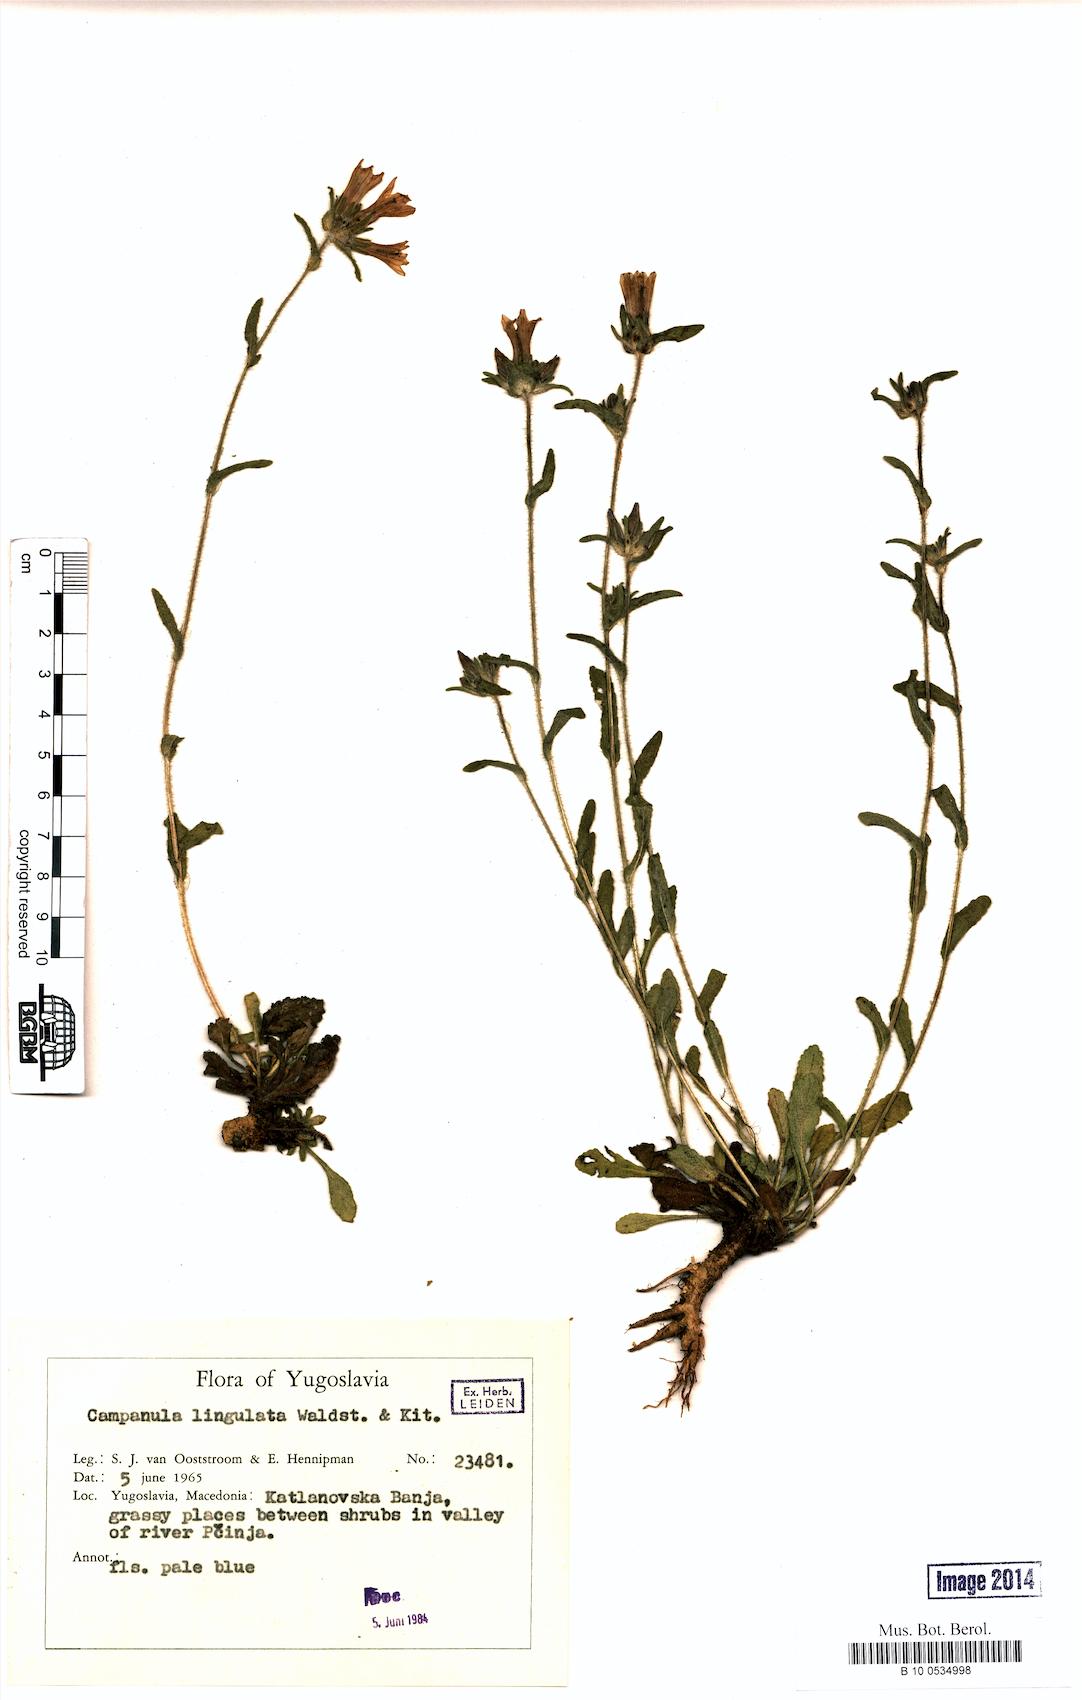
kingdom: Plantae
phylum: Tracheophyta
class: Magnoliopsida
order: Asterales
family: Campanulaceae
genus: Campanula
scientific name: Campanula lingulata
